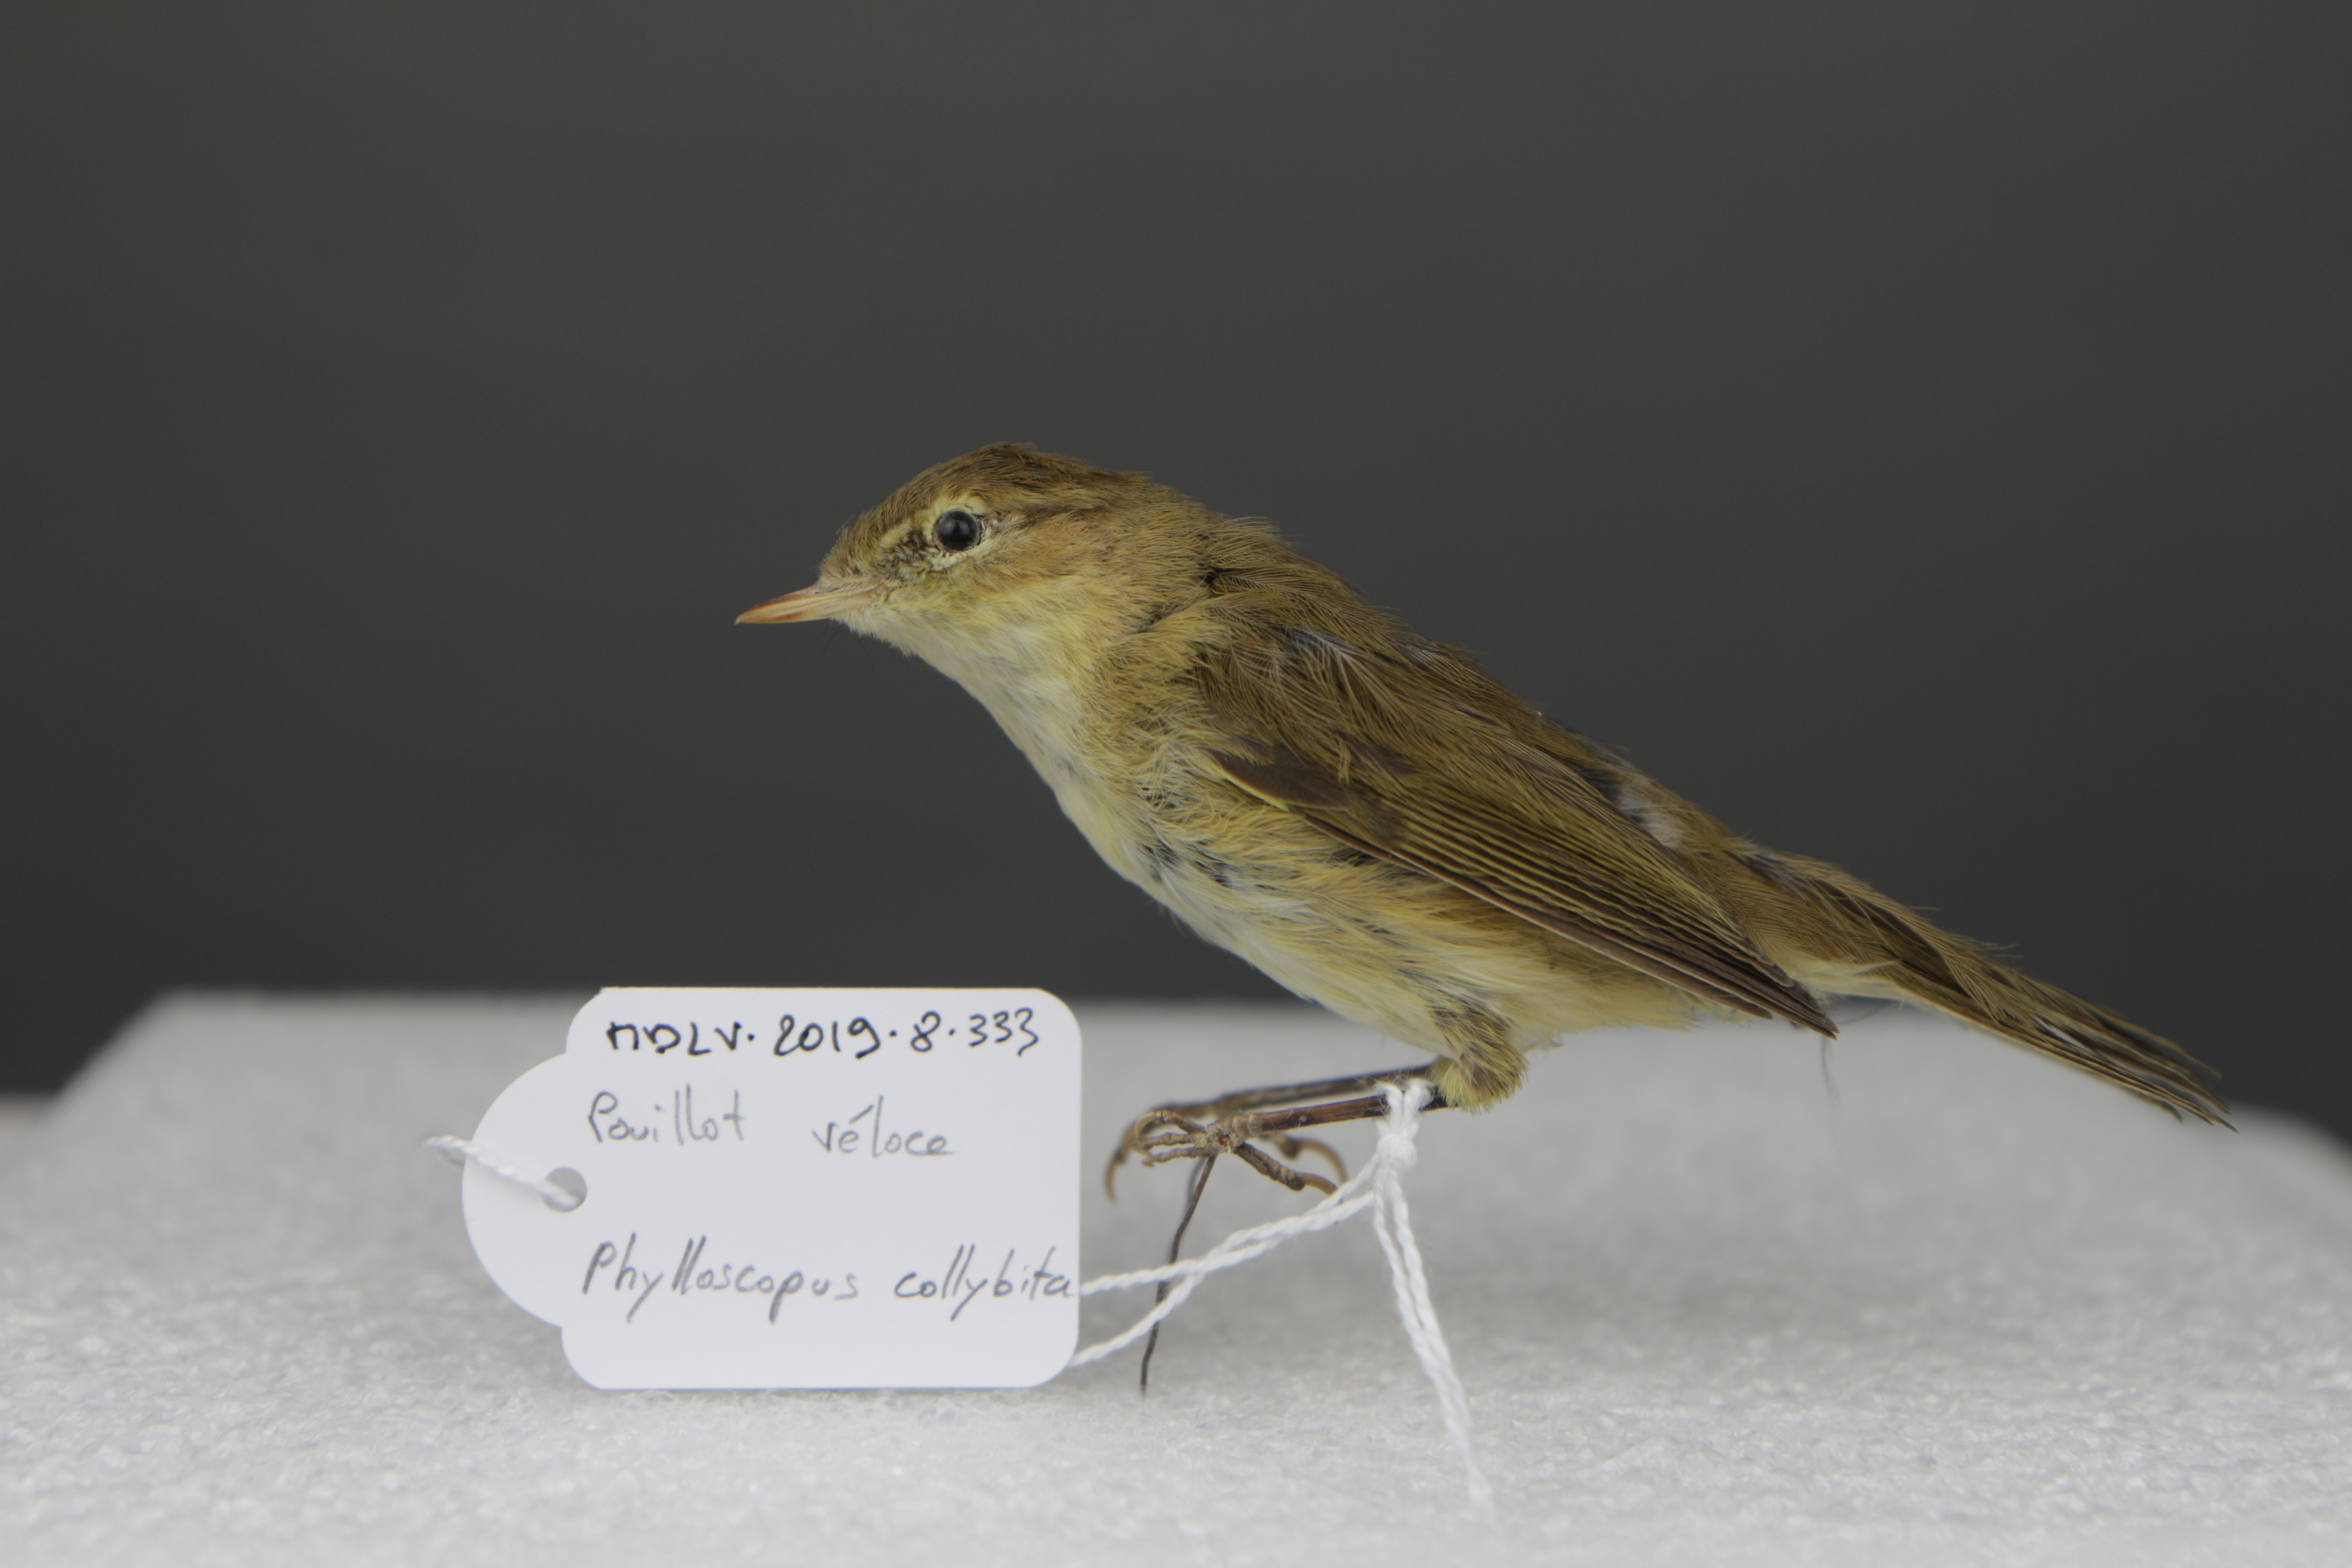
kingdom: Animalia
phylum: Chordata
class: Aves
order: Passeriformes
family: Phylloscopidae
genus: Phylloscopus
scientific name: Phylloscopus collybita
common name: Common chiffchaff
